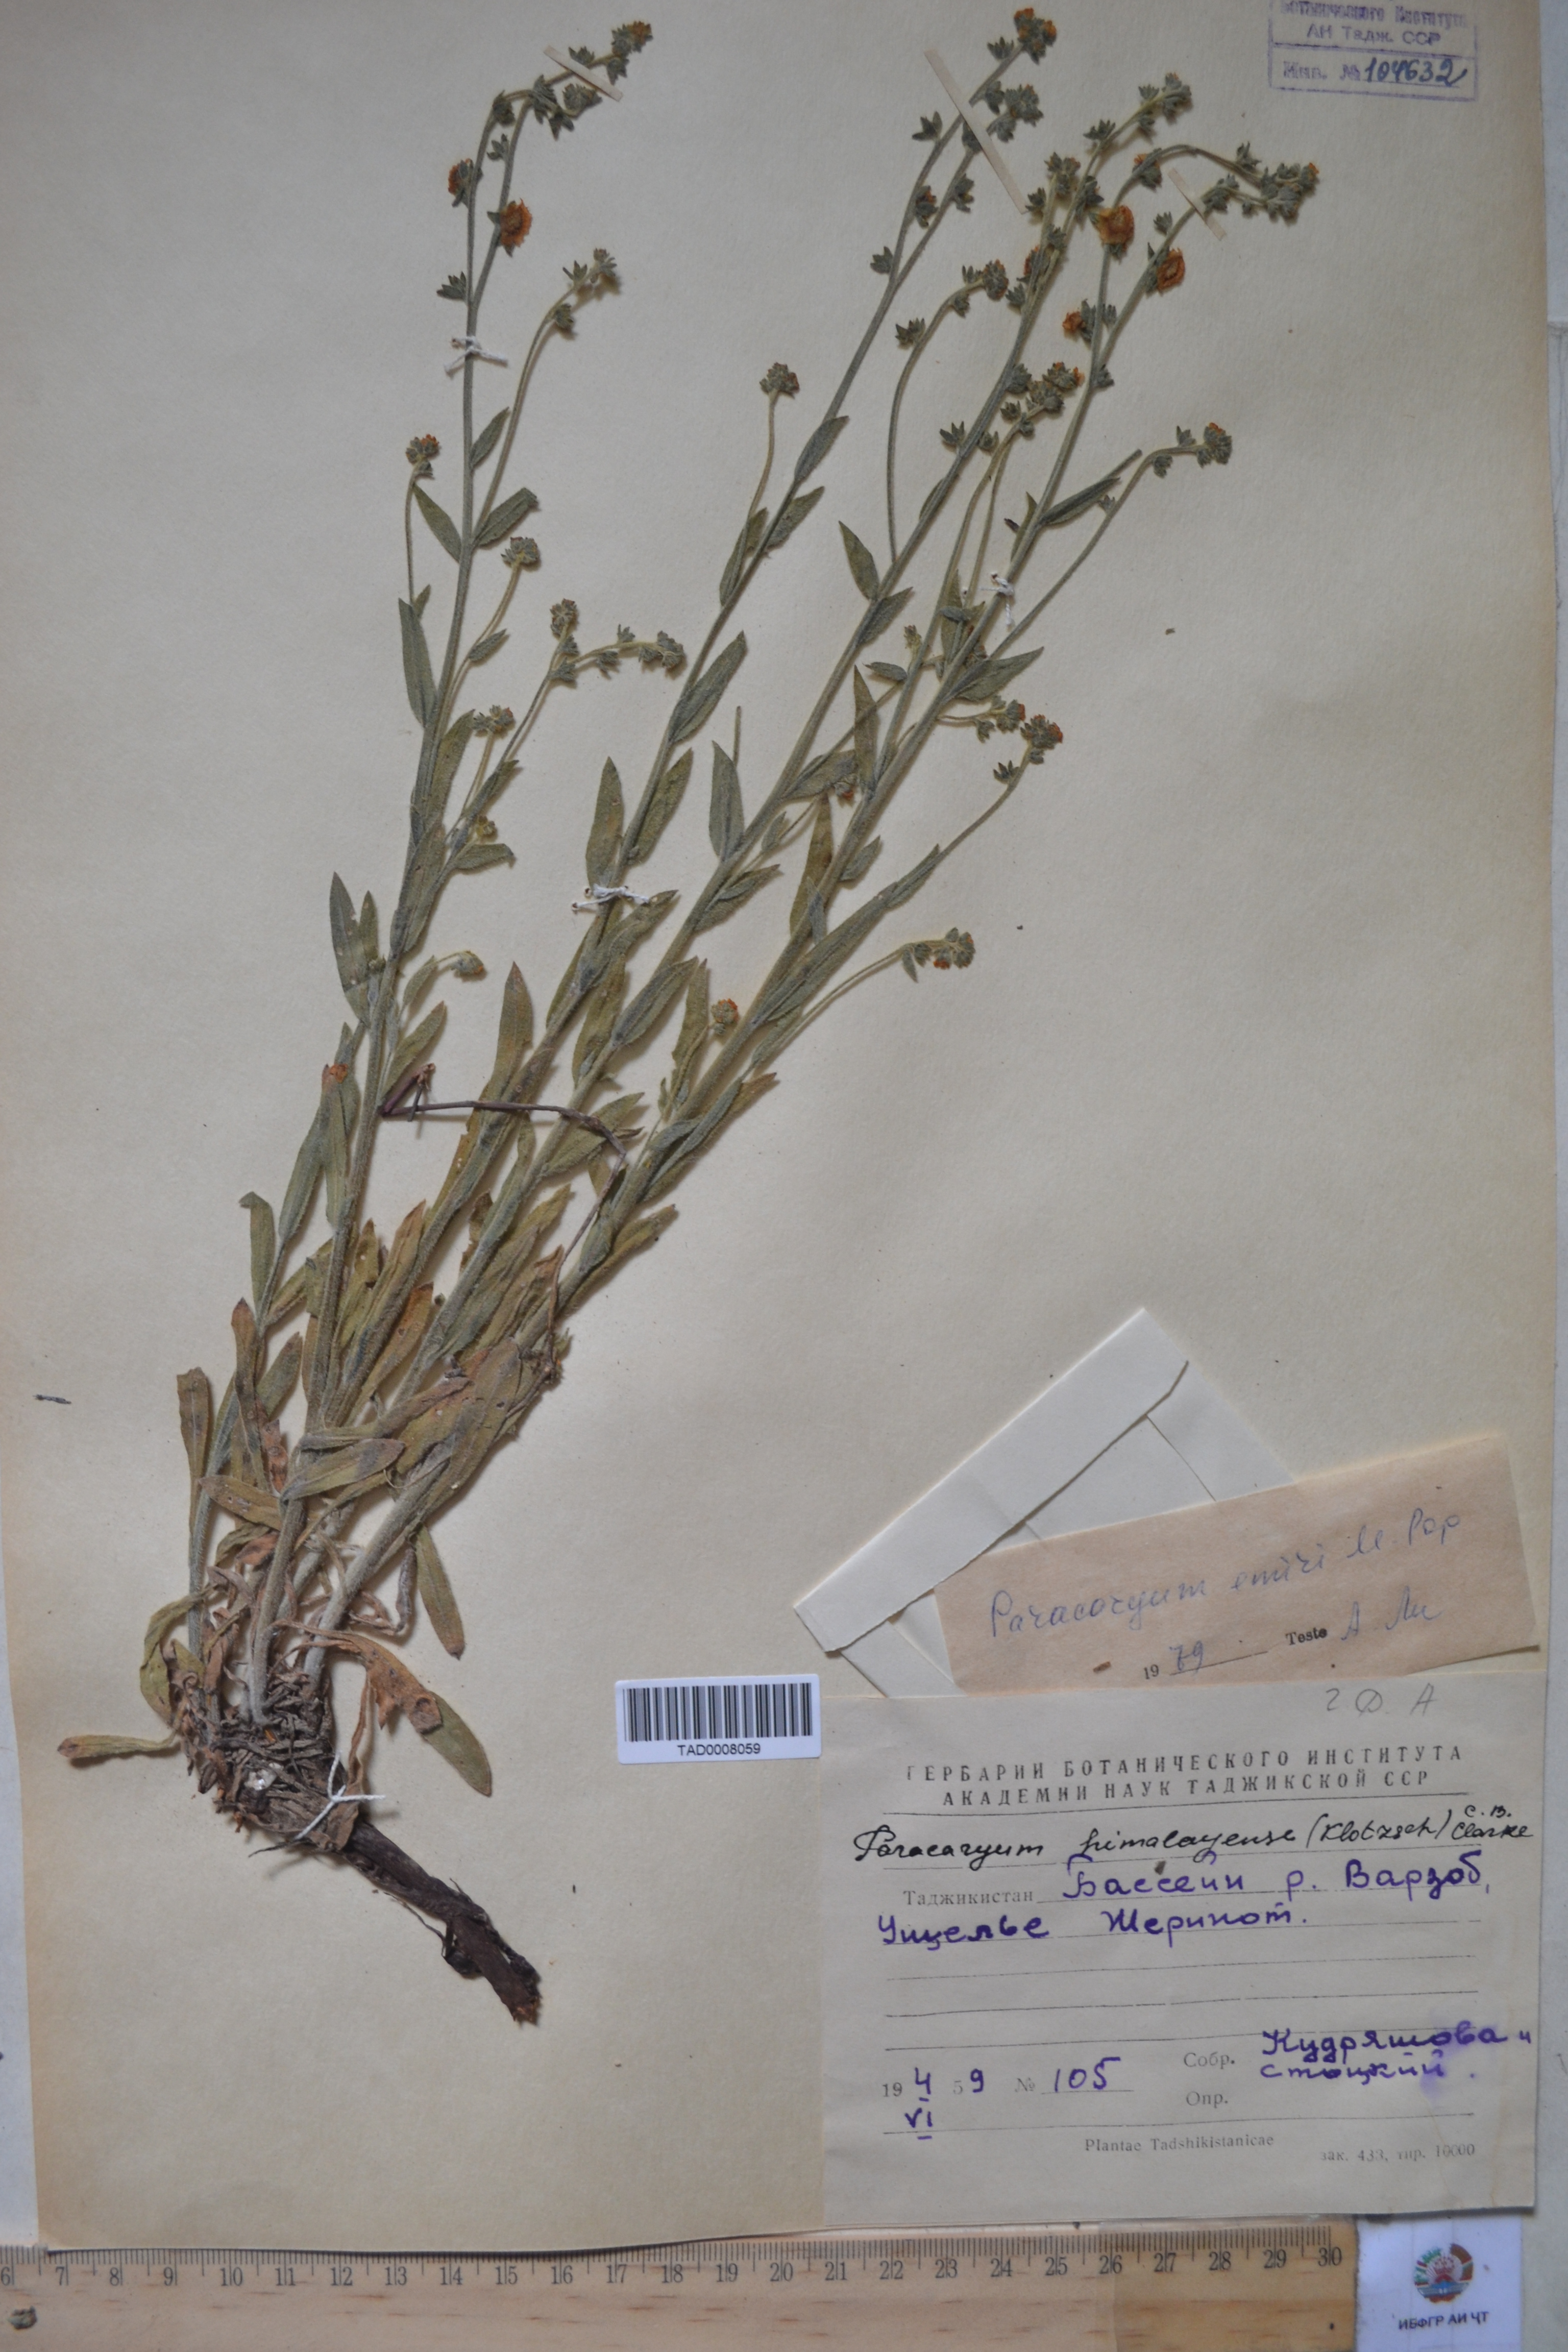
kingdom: Plantae
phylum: Tracheophyta
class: Magnoliopsida
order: Boraginales
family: Boraginaceae
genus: Paracaryum
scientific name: Paracaryum himalayense
